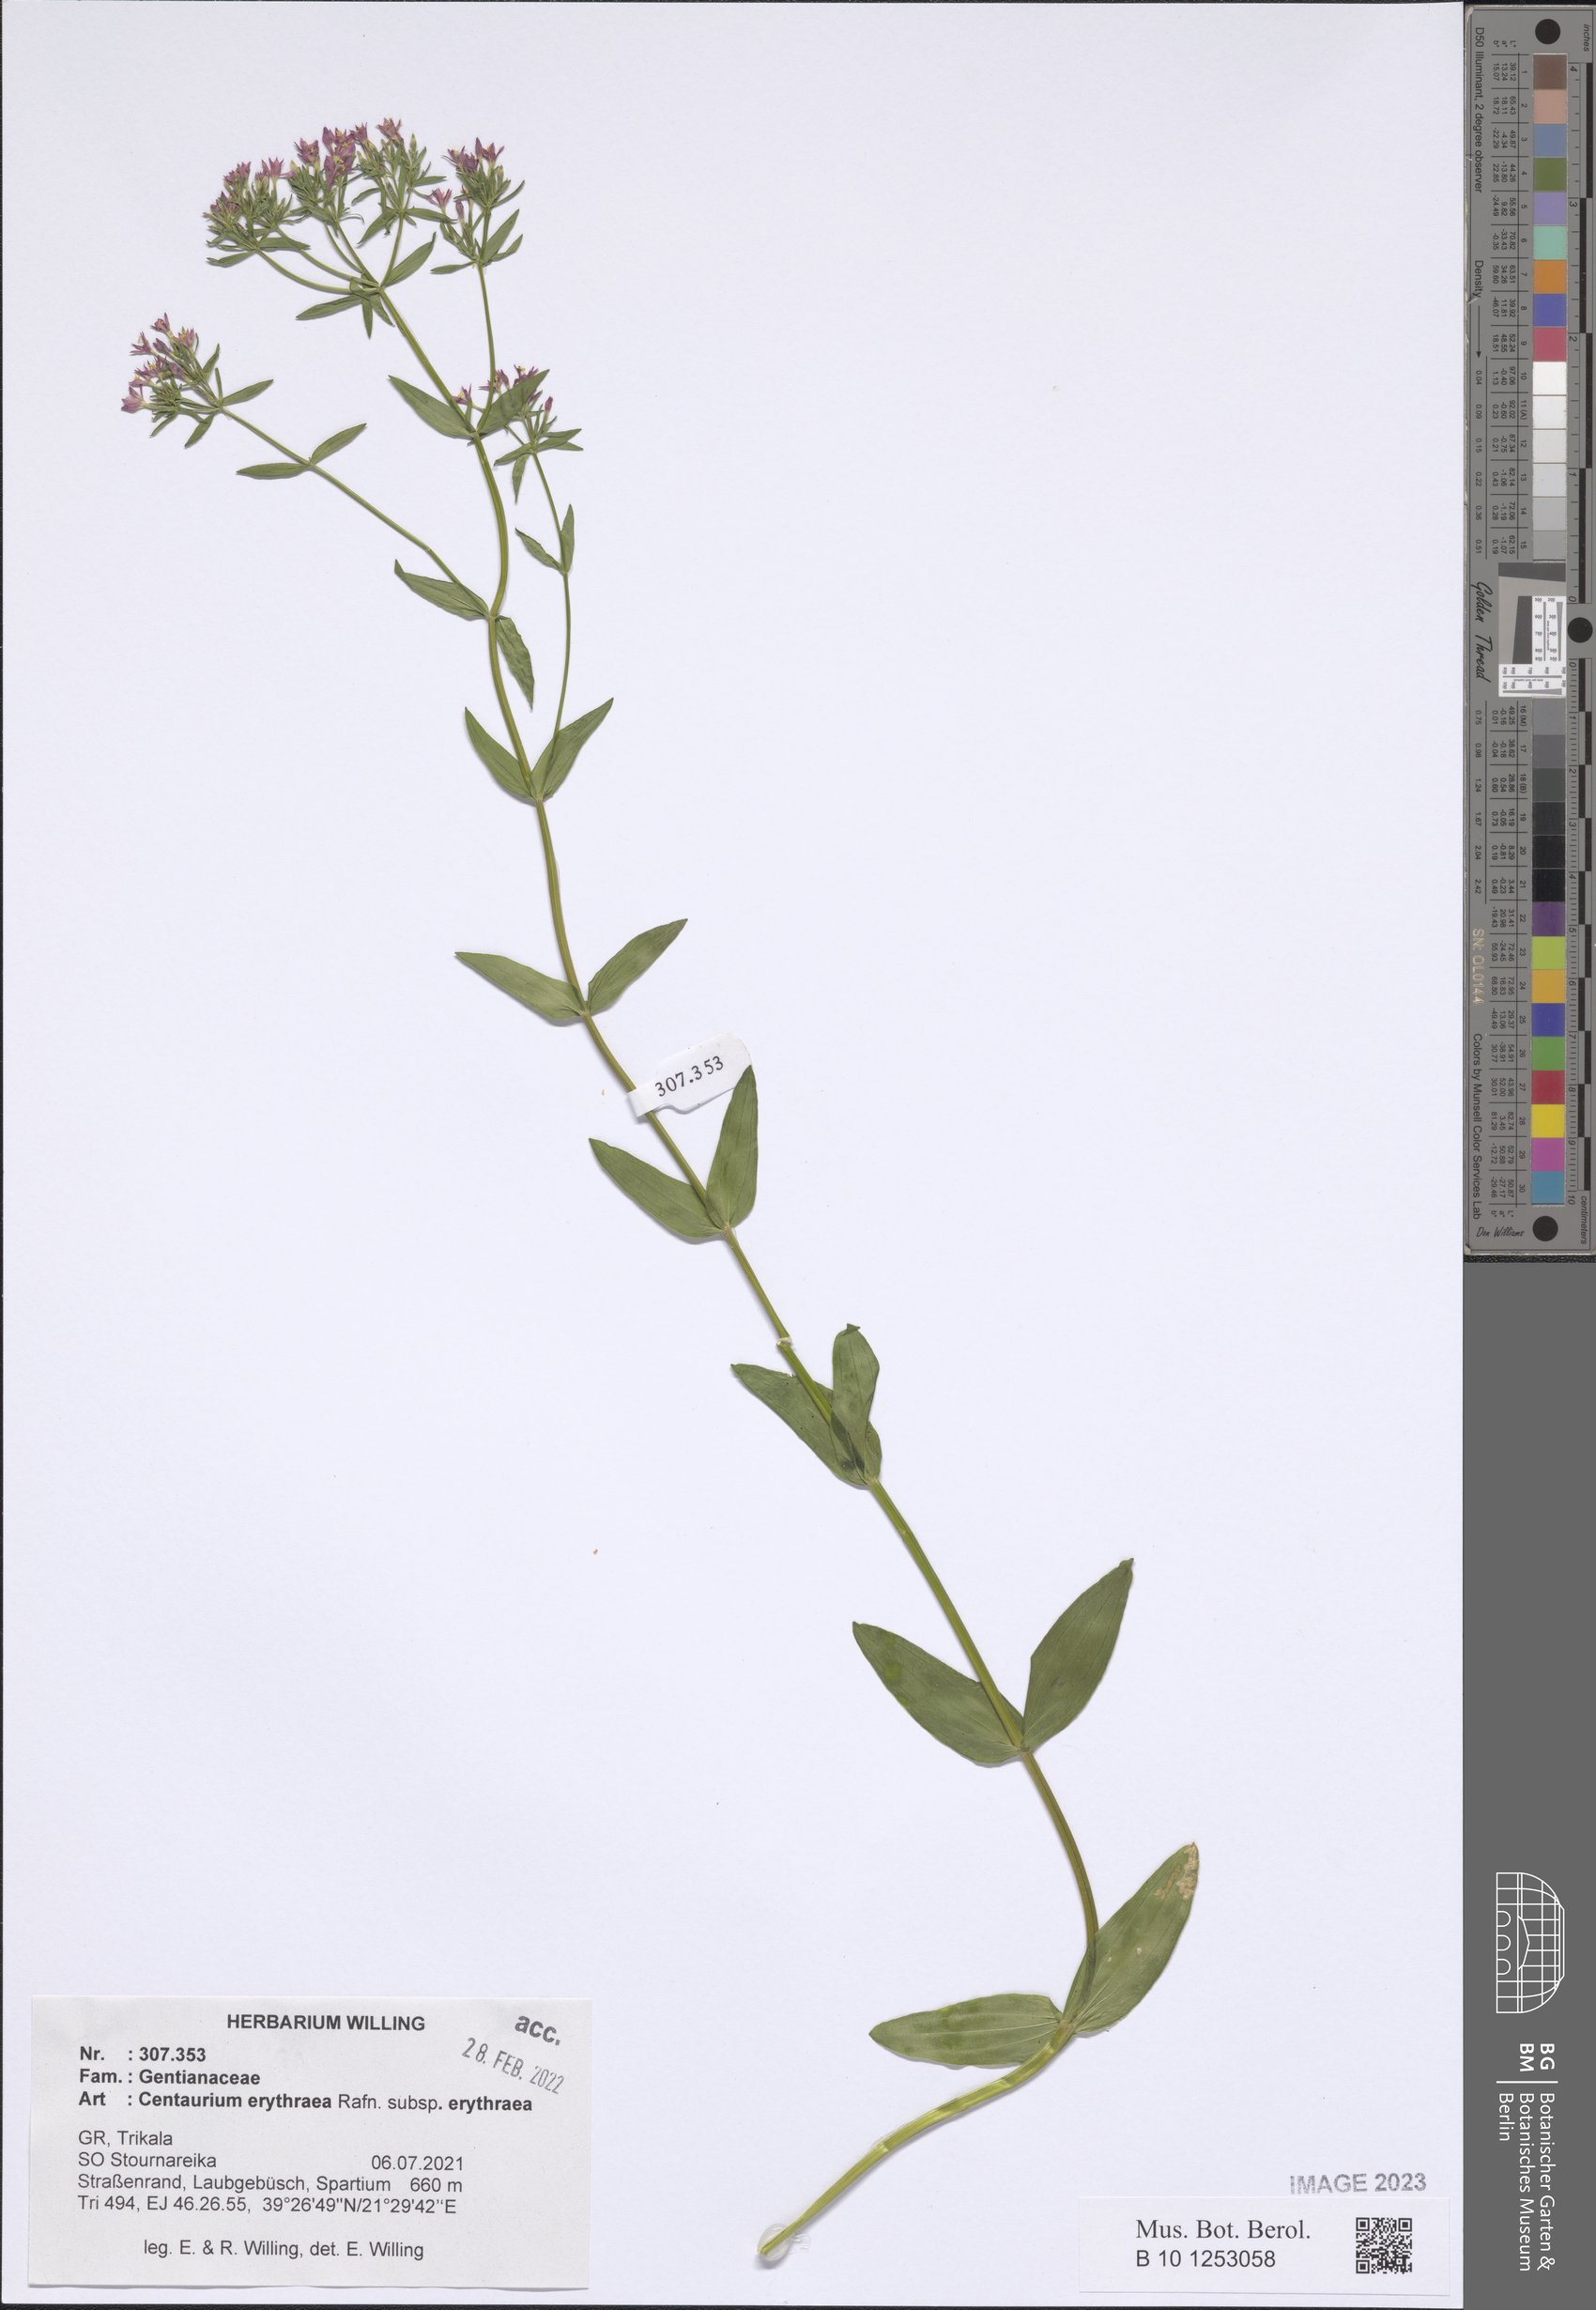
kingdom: Plantae
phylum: Tracheophyta
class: Magnoliopsida
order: Gentianales
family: Gentianaceae
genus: Centaurium
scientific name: Centaurium erythraea
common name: Common centaury
